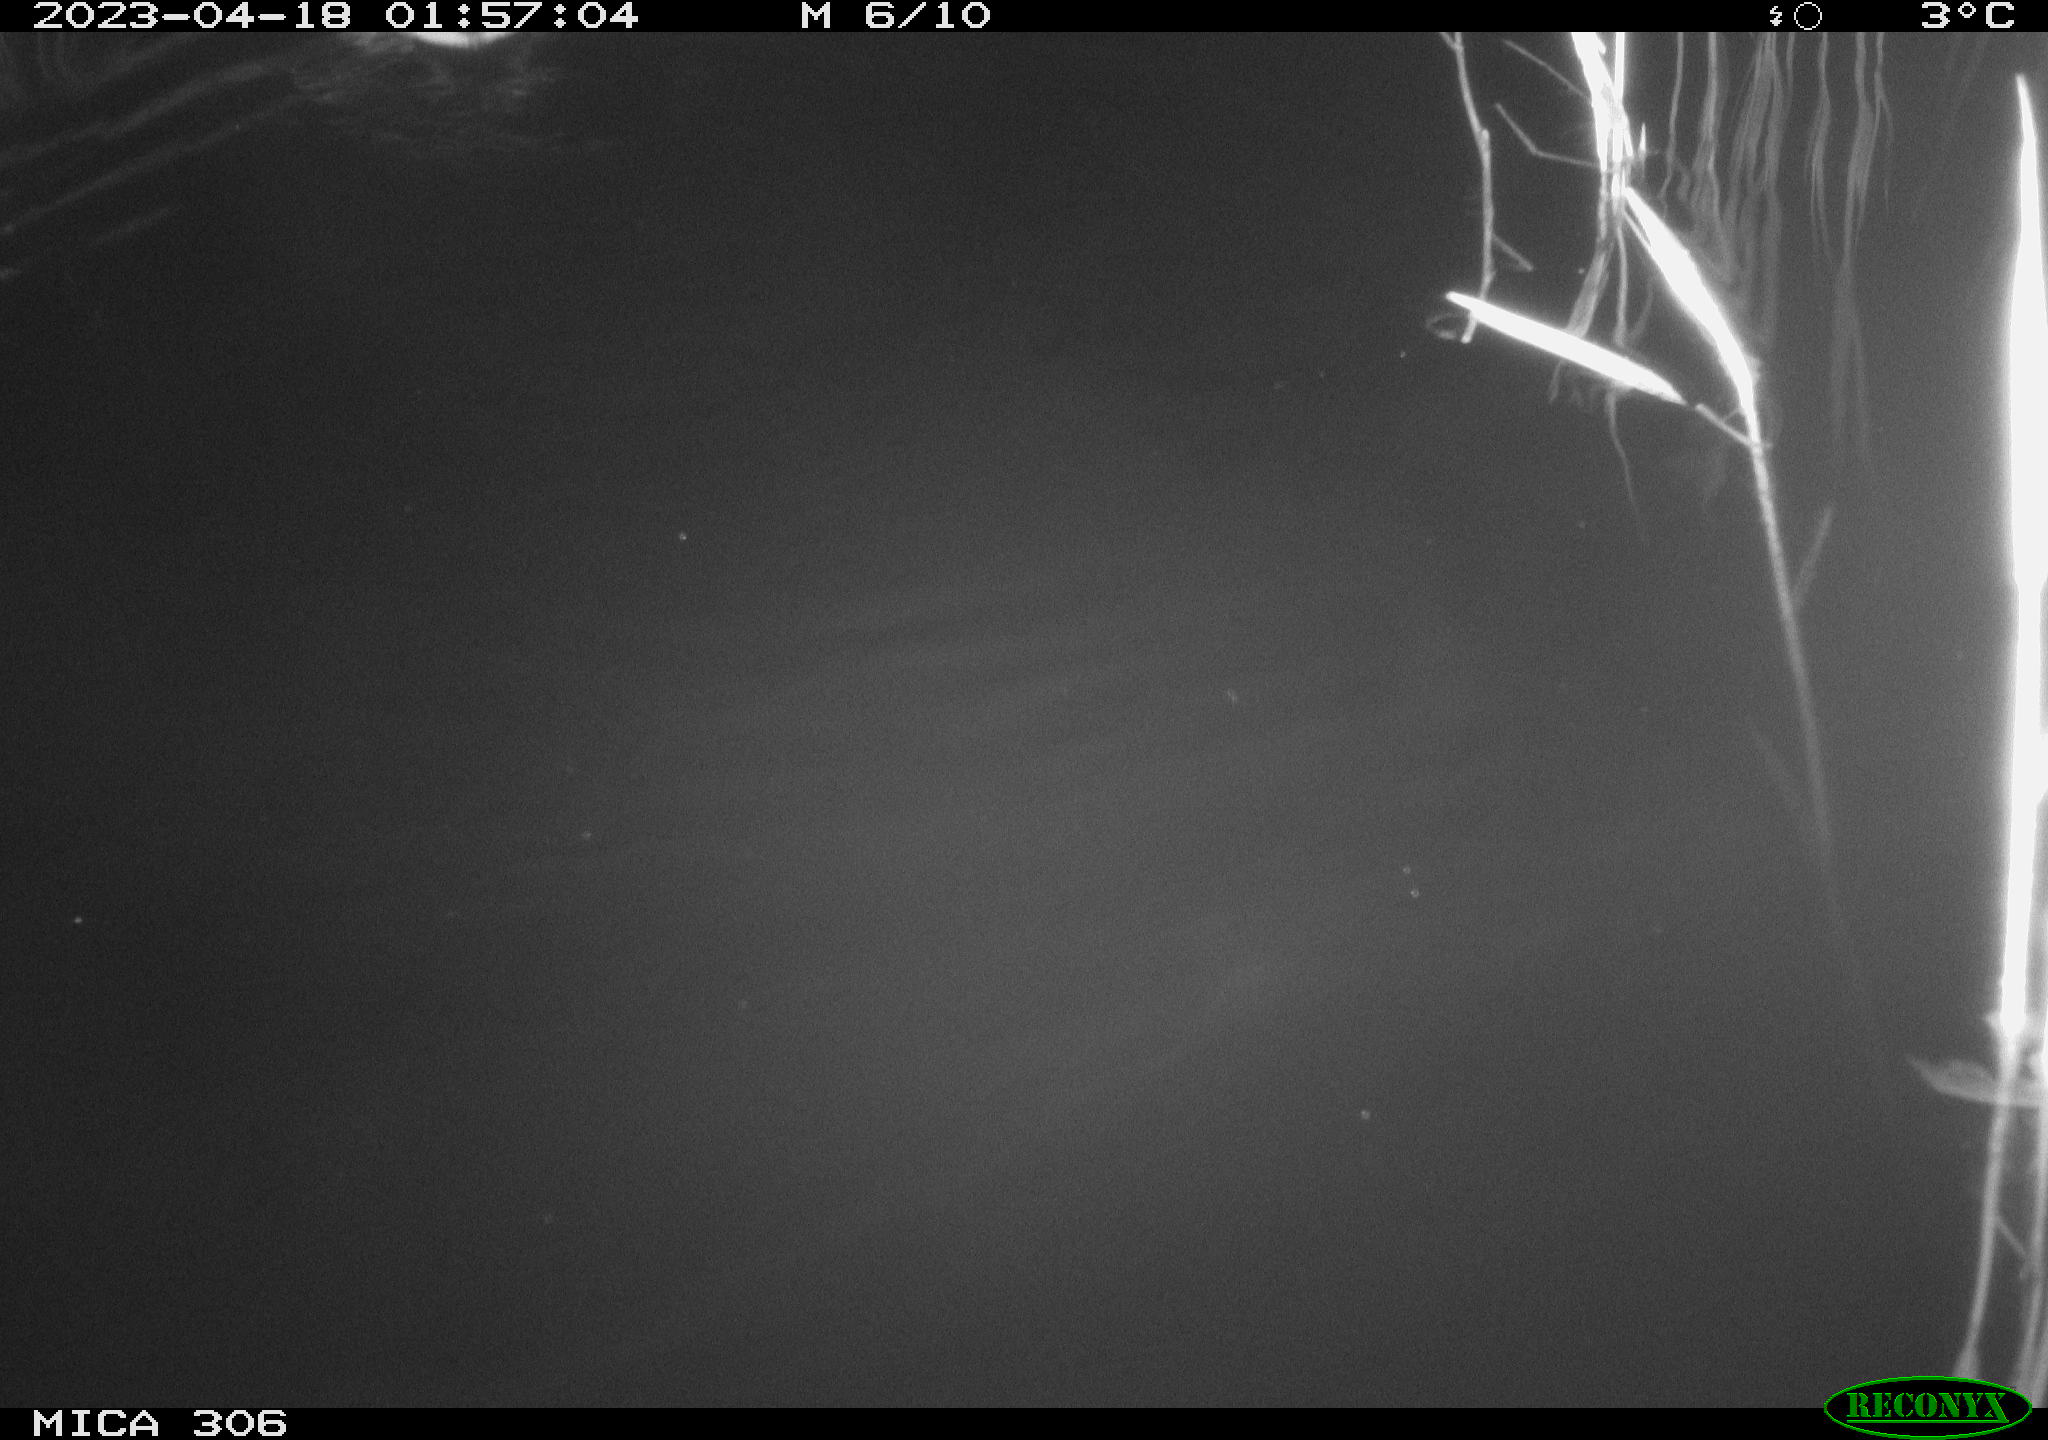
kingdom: Animalia
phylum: Chordata
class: Aves
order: Anseriformes
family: Anatidae
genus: Anas
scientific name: Anas
